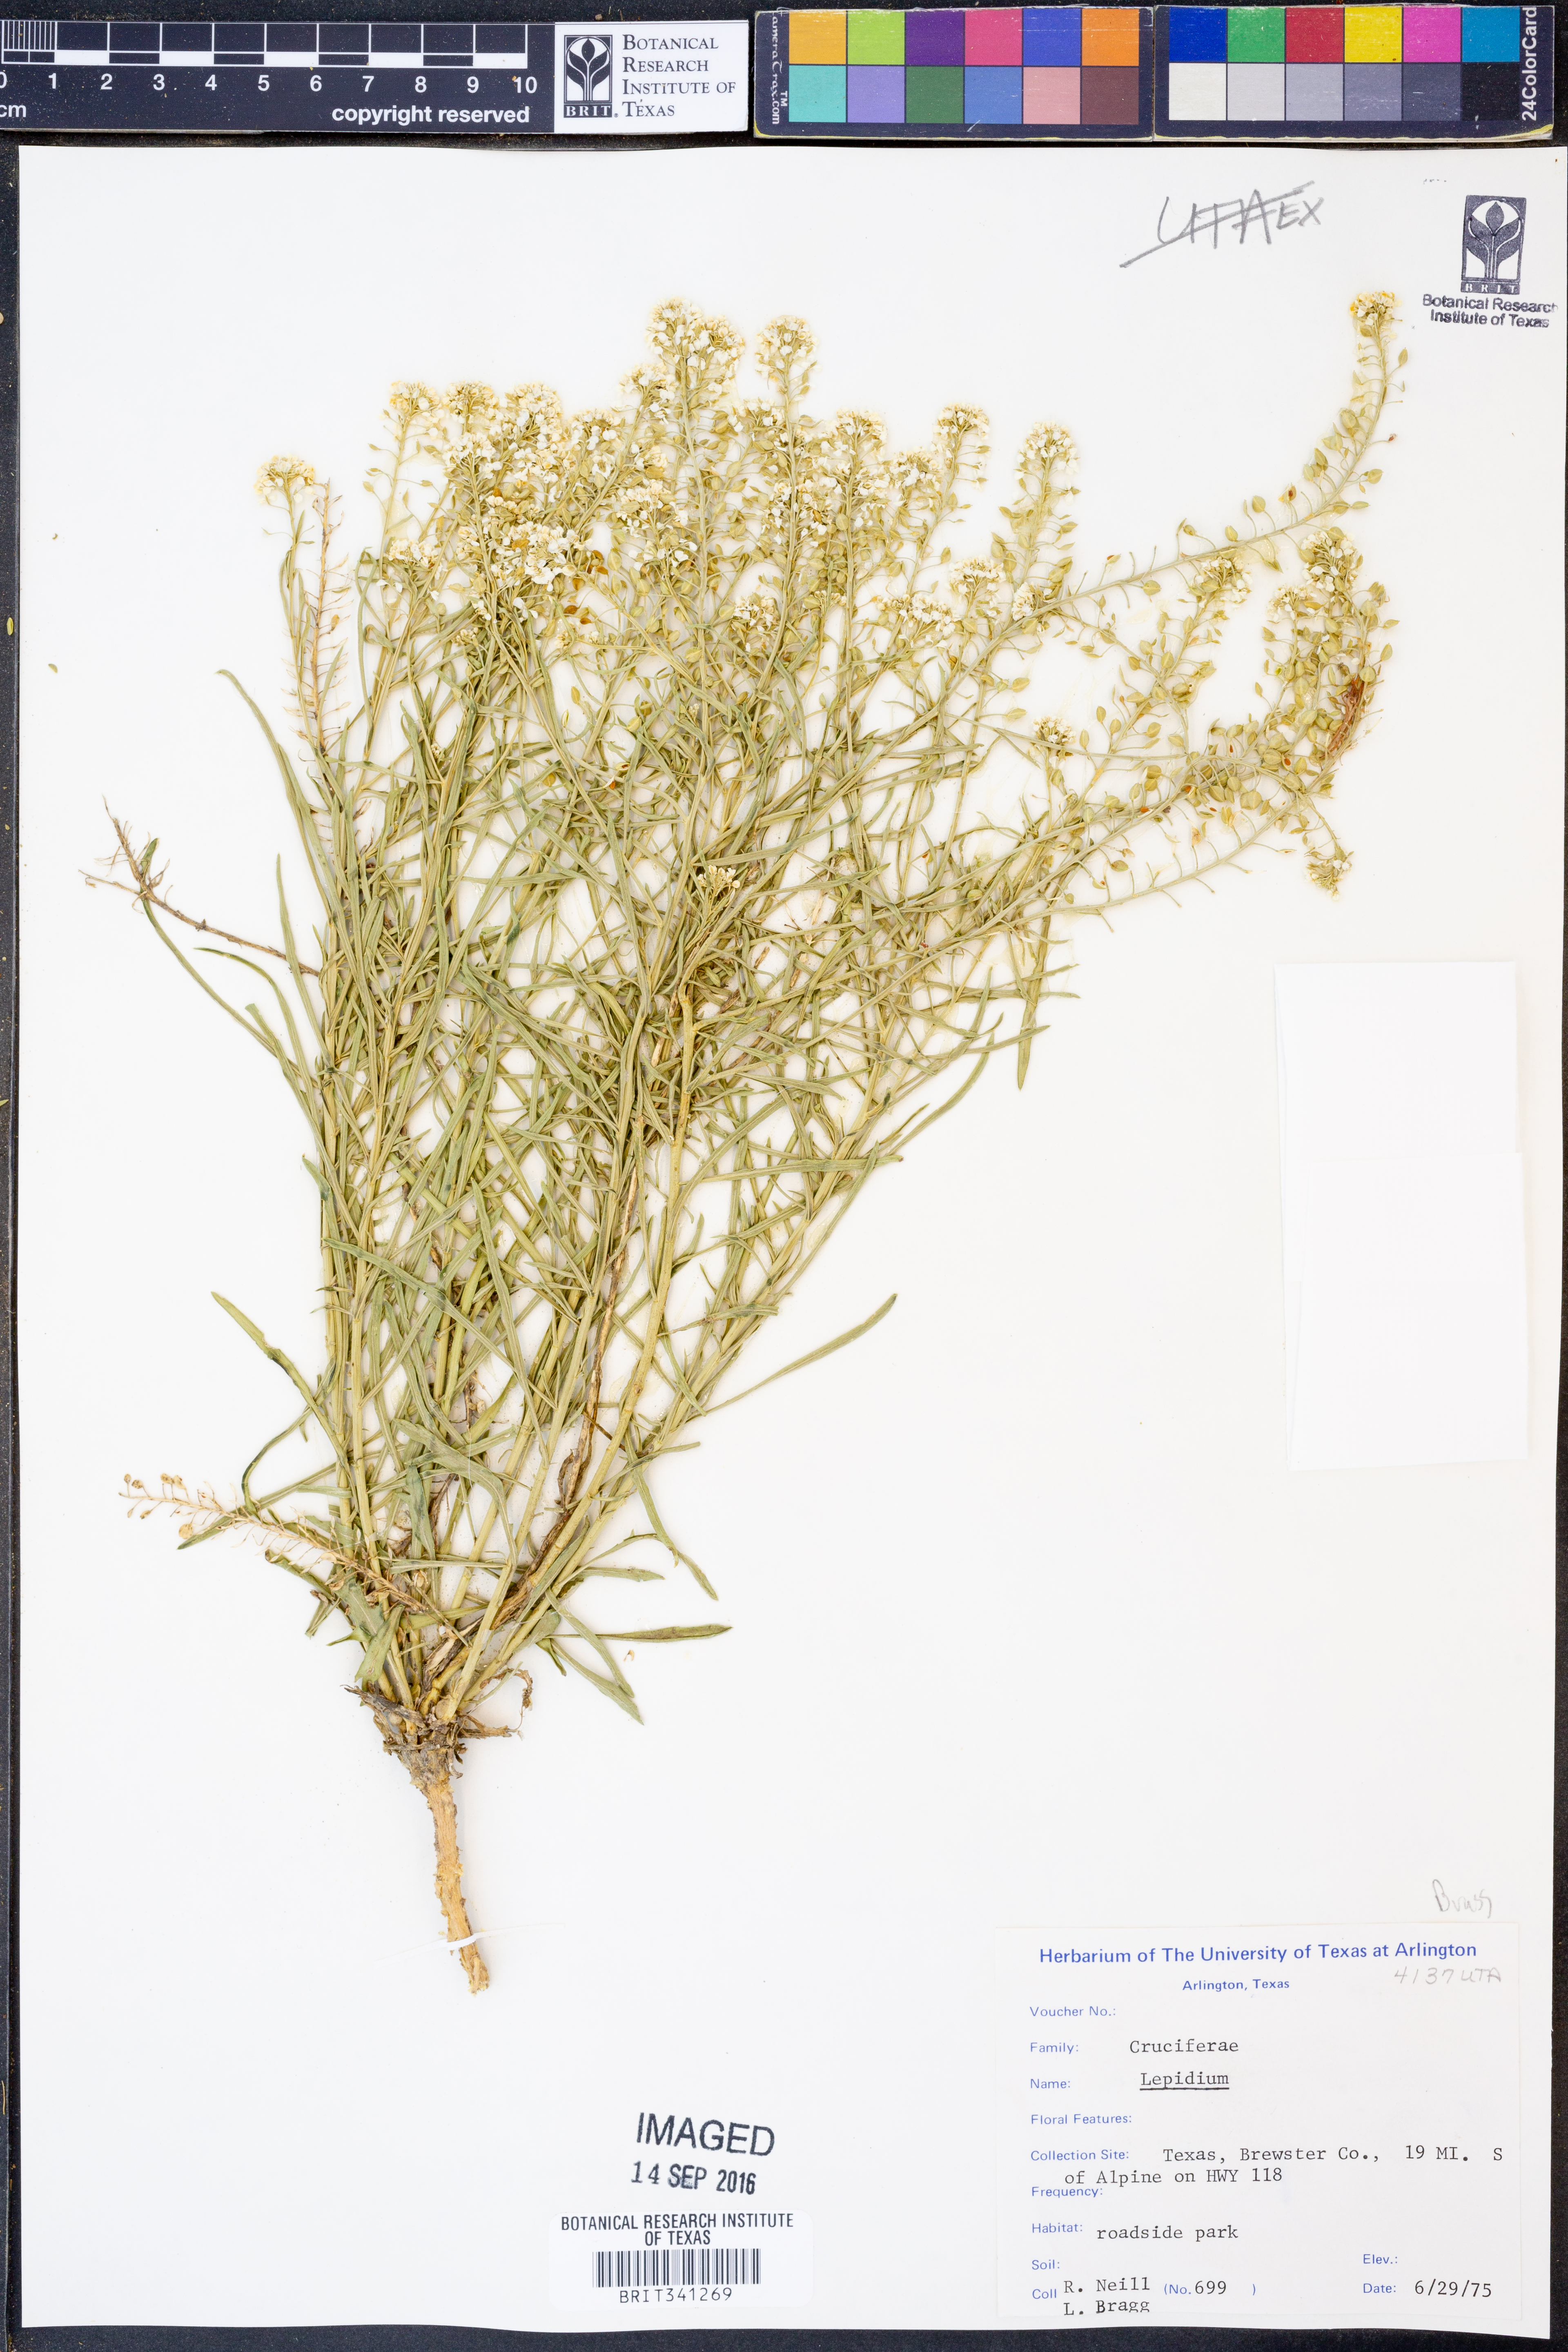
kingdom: Plantae
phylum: Tracheophyta
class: Magnoliopsida
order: Brassicales
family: Brassicaceae
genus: Lepidium
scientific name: Lepidium
